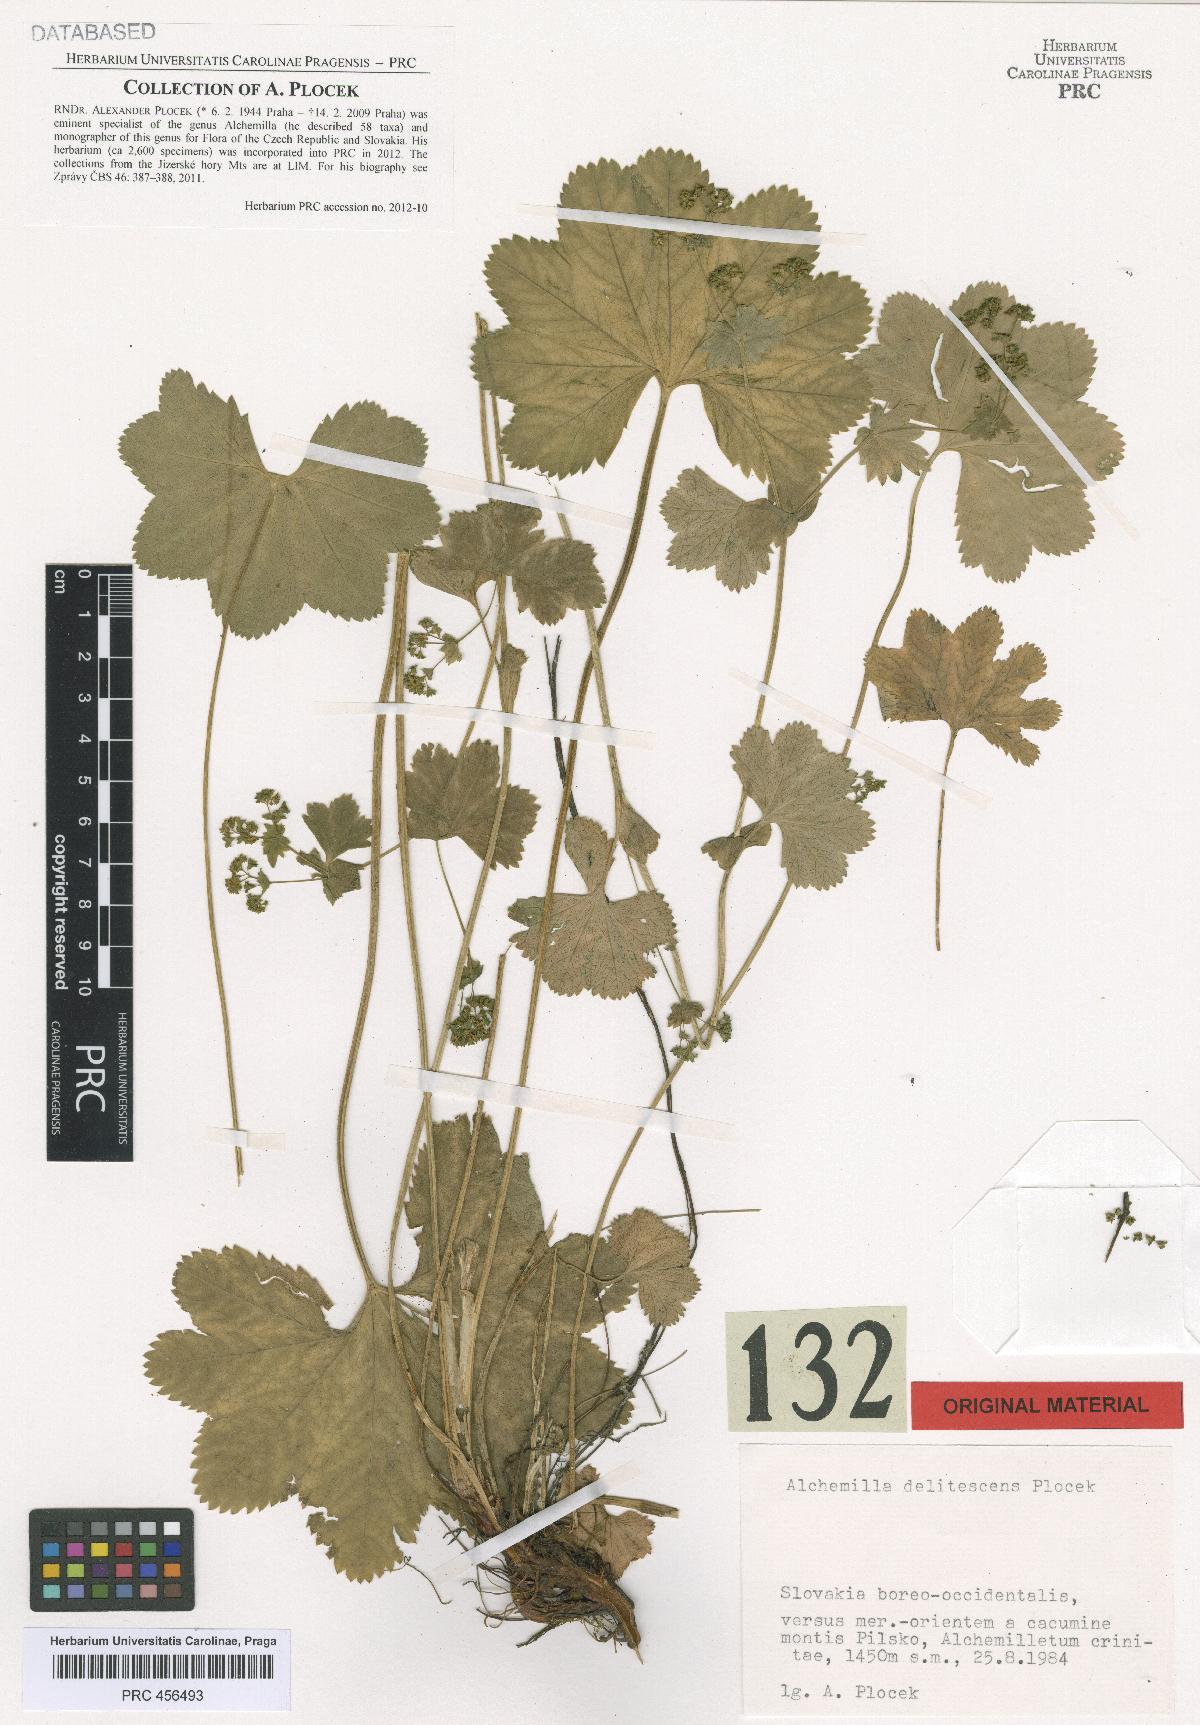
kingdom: Plantae
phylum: Tracheophyta
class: Magnoliopsida
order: Rosales
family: Rosaceae
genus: Alchemilla
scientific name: Alchemilla delitescens
